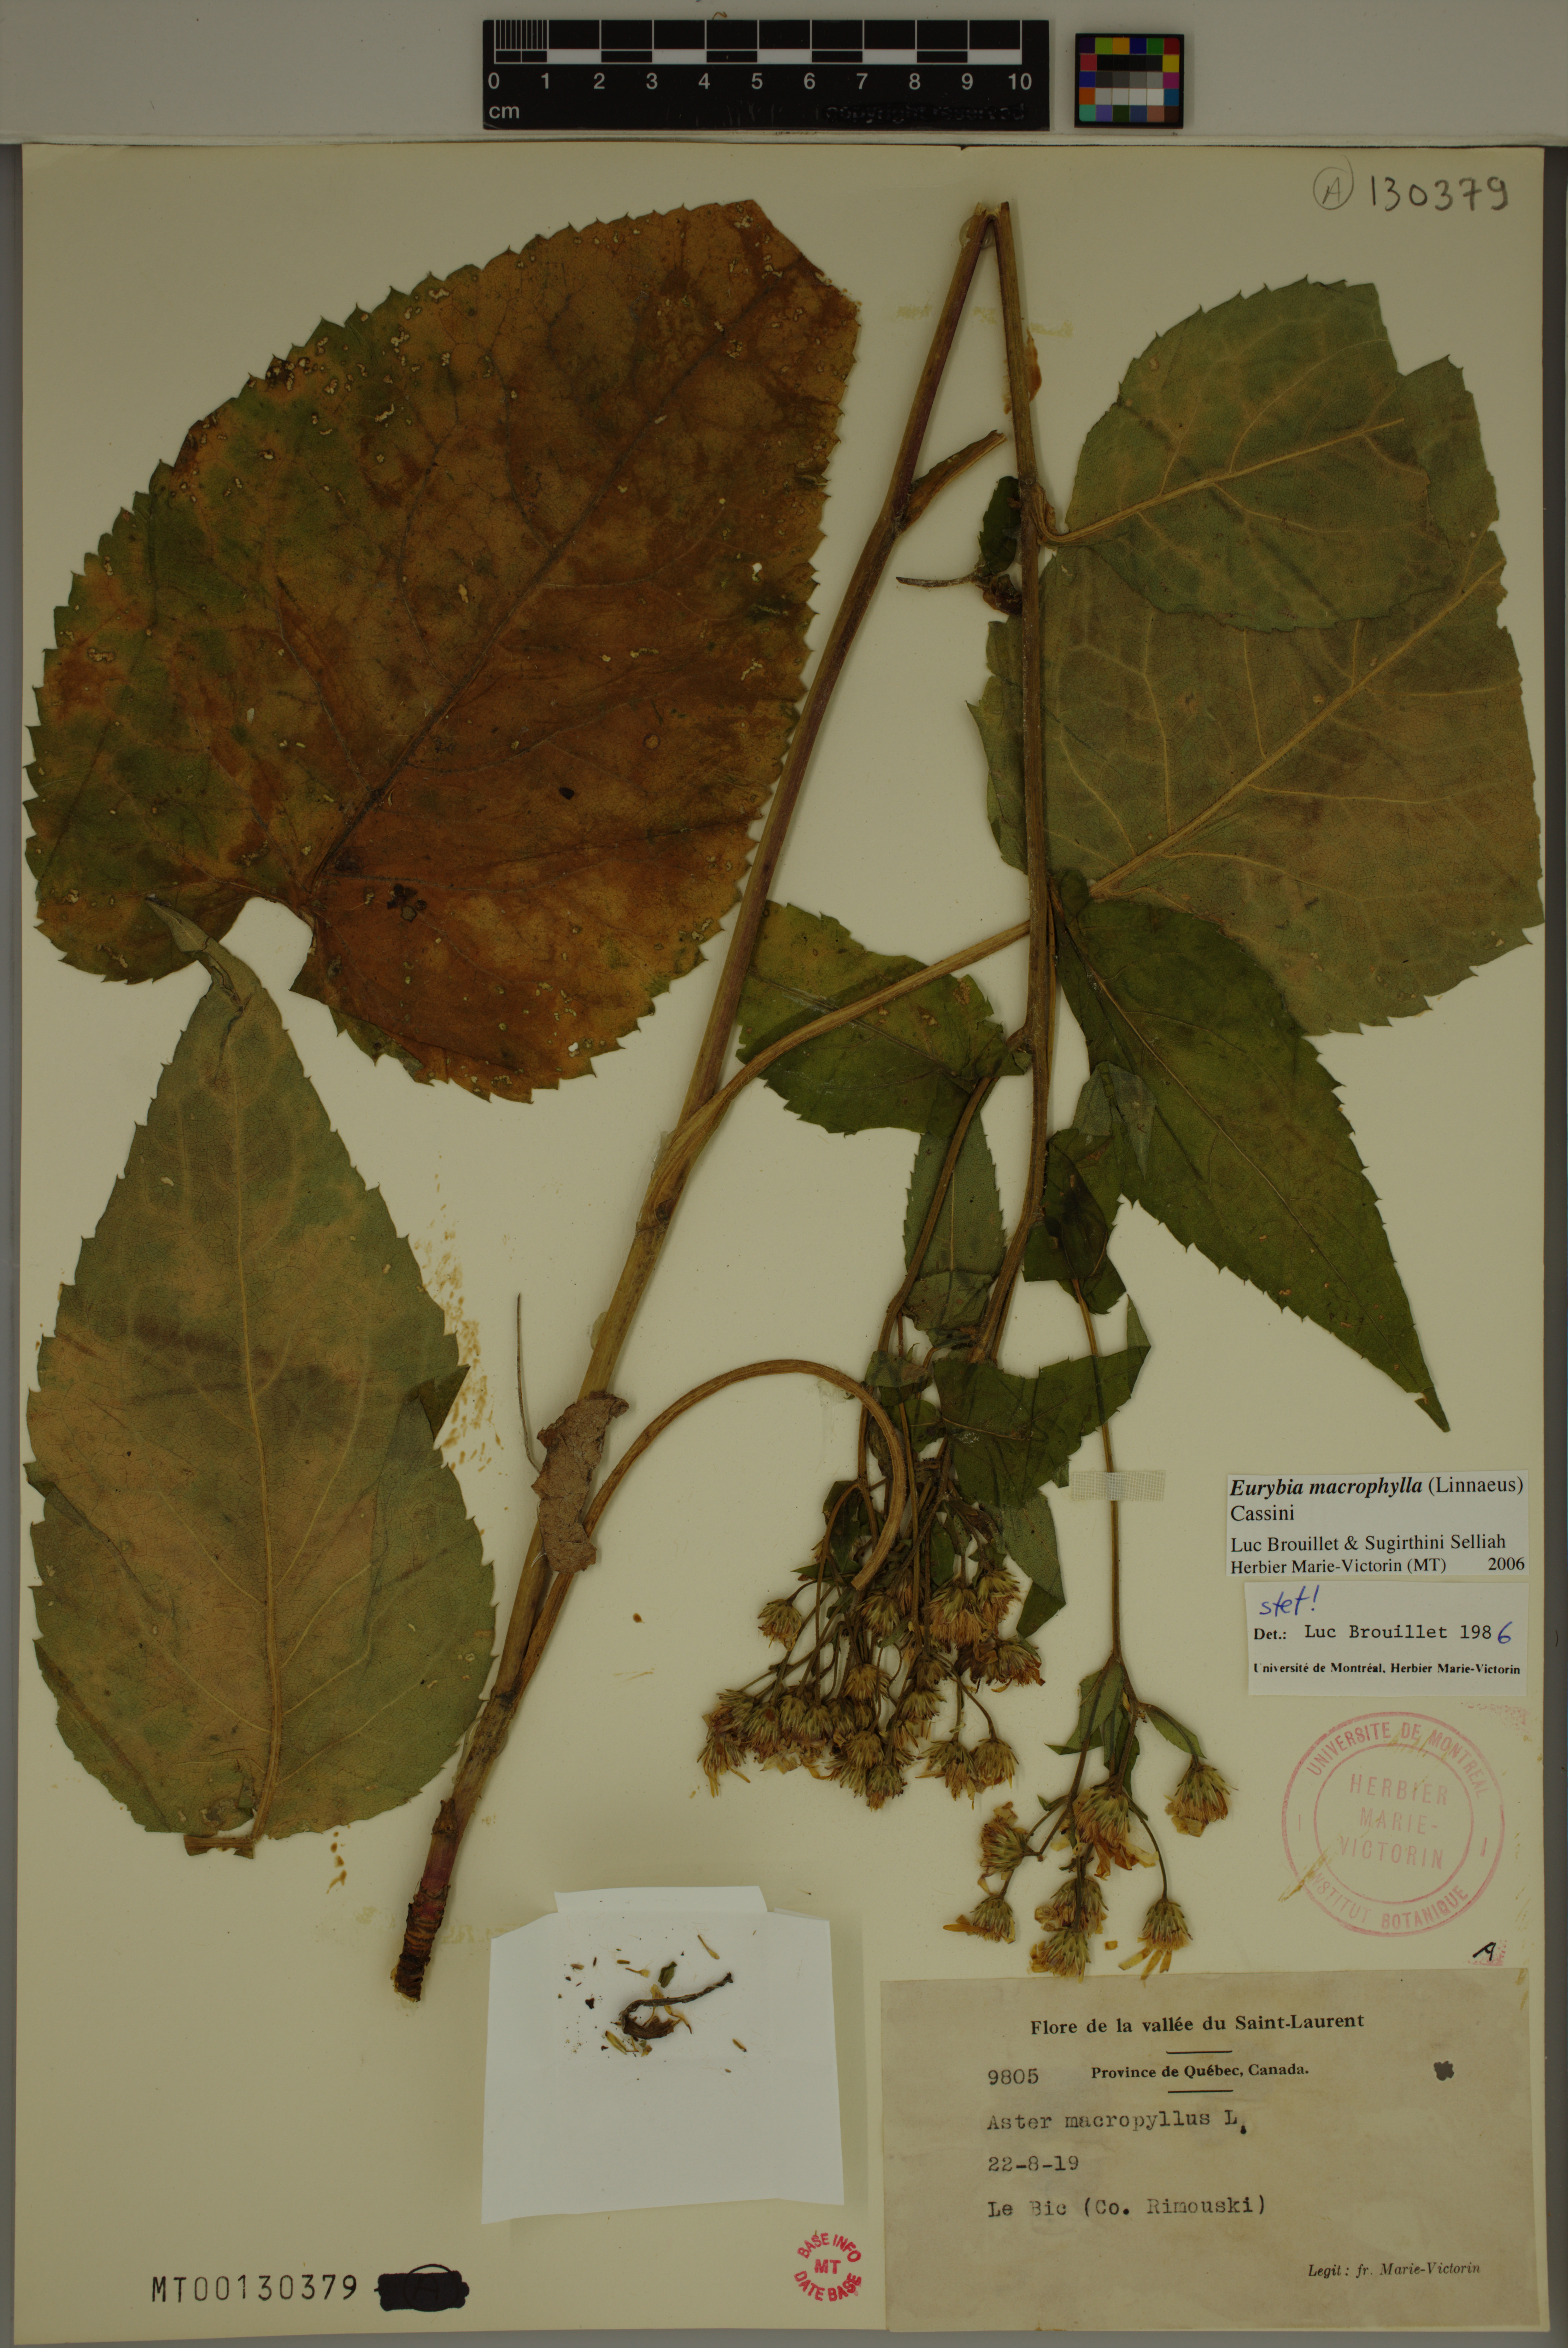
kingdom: Plantae
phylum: Tracheophyta
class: Magnoliopsida
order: Asterales
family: Asteraceae
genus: Eurybia
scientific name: Eurybia macrophylla
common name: Big-leaved aster
